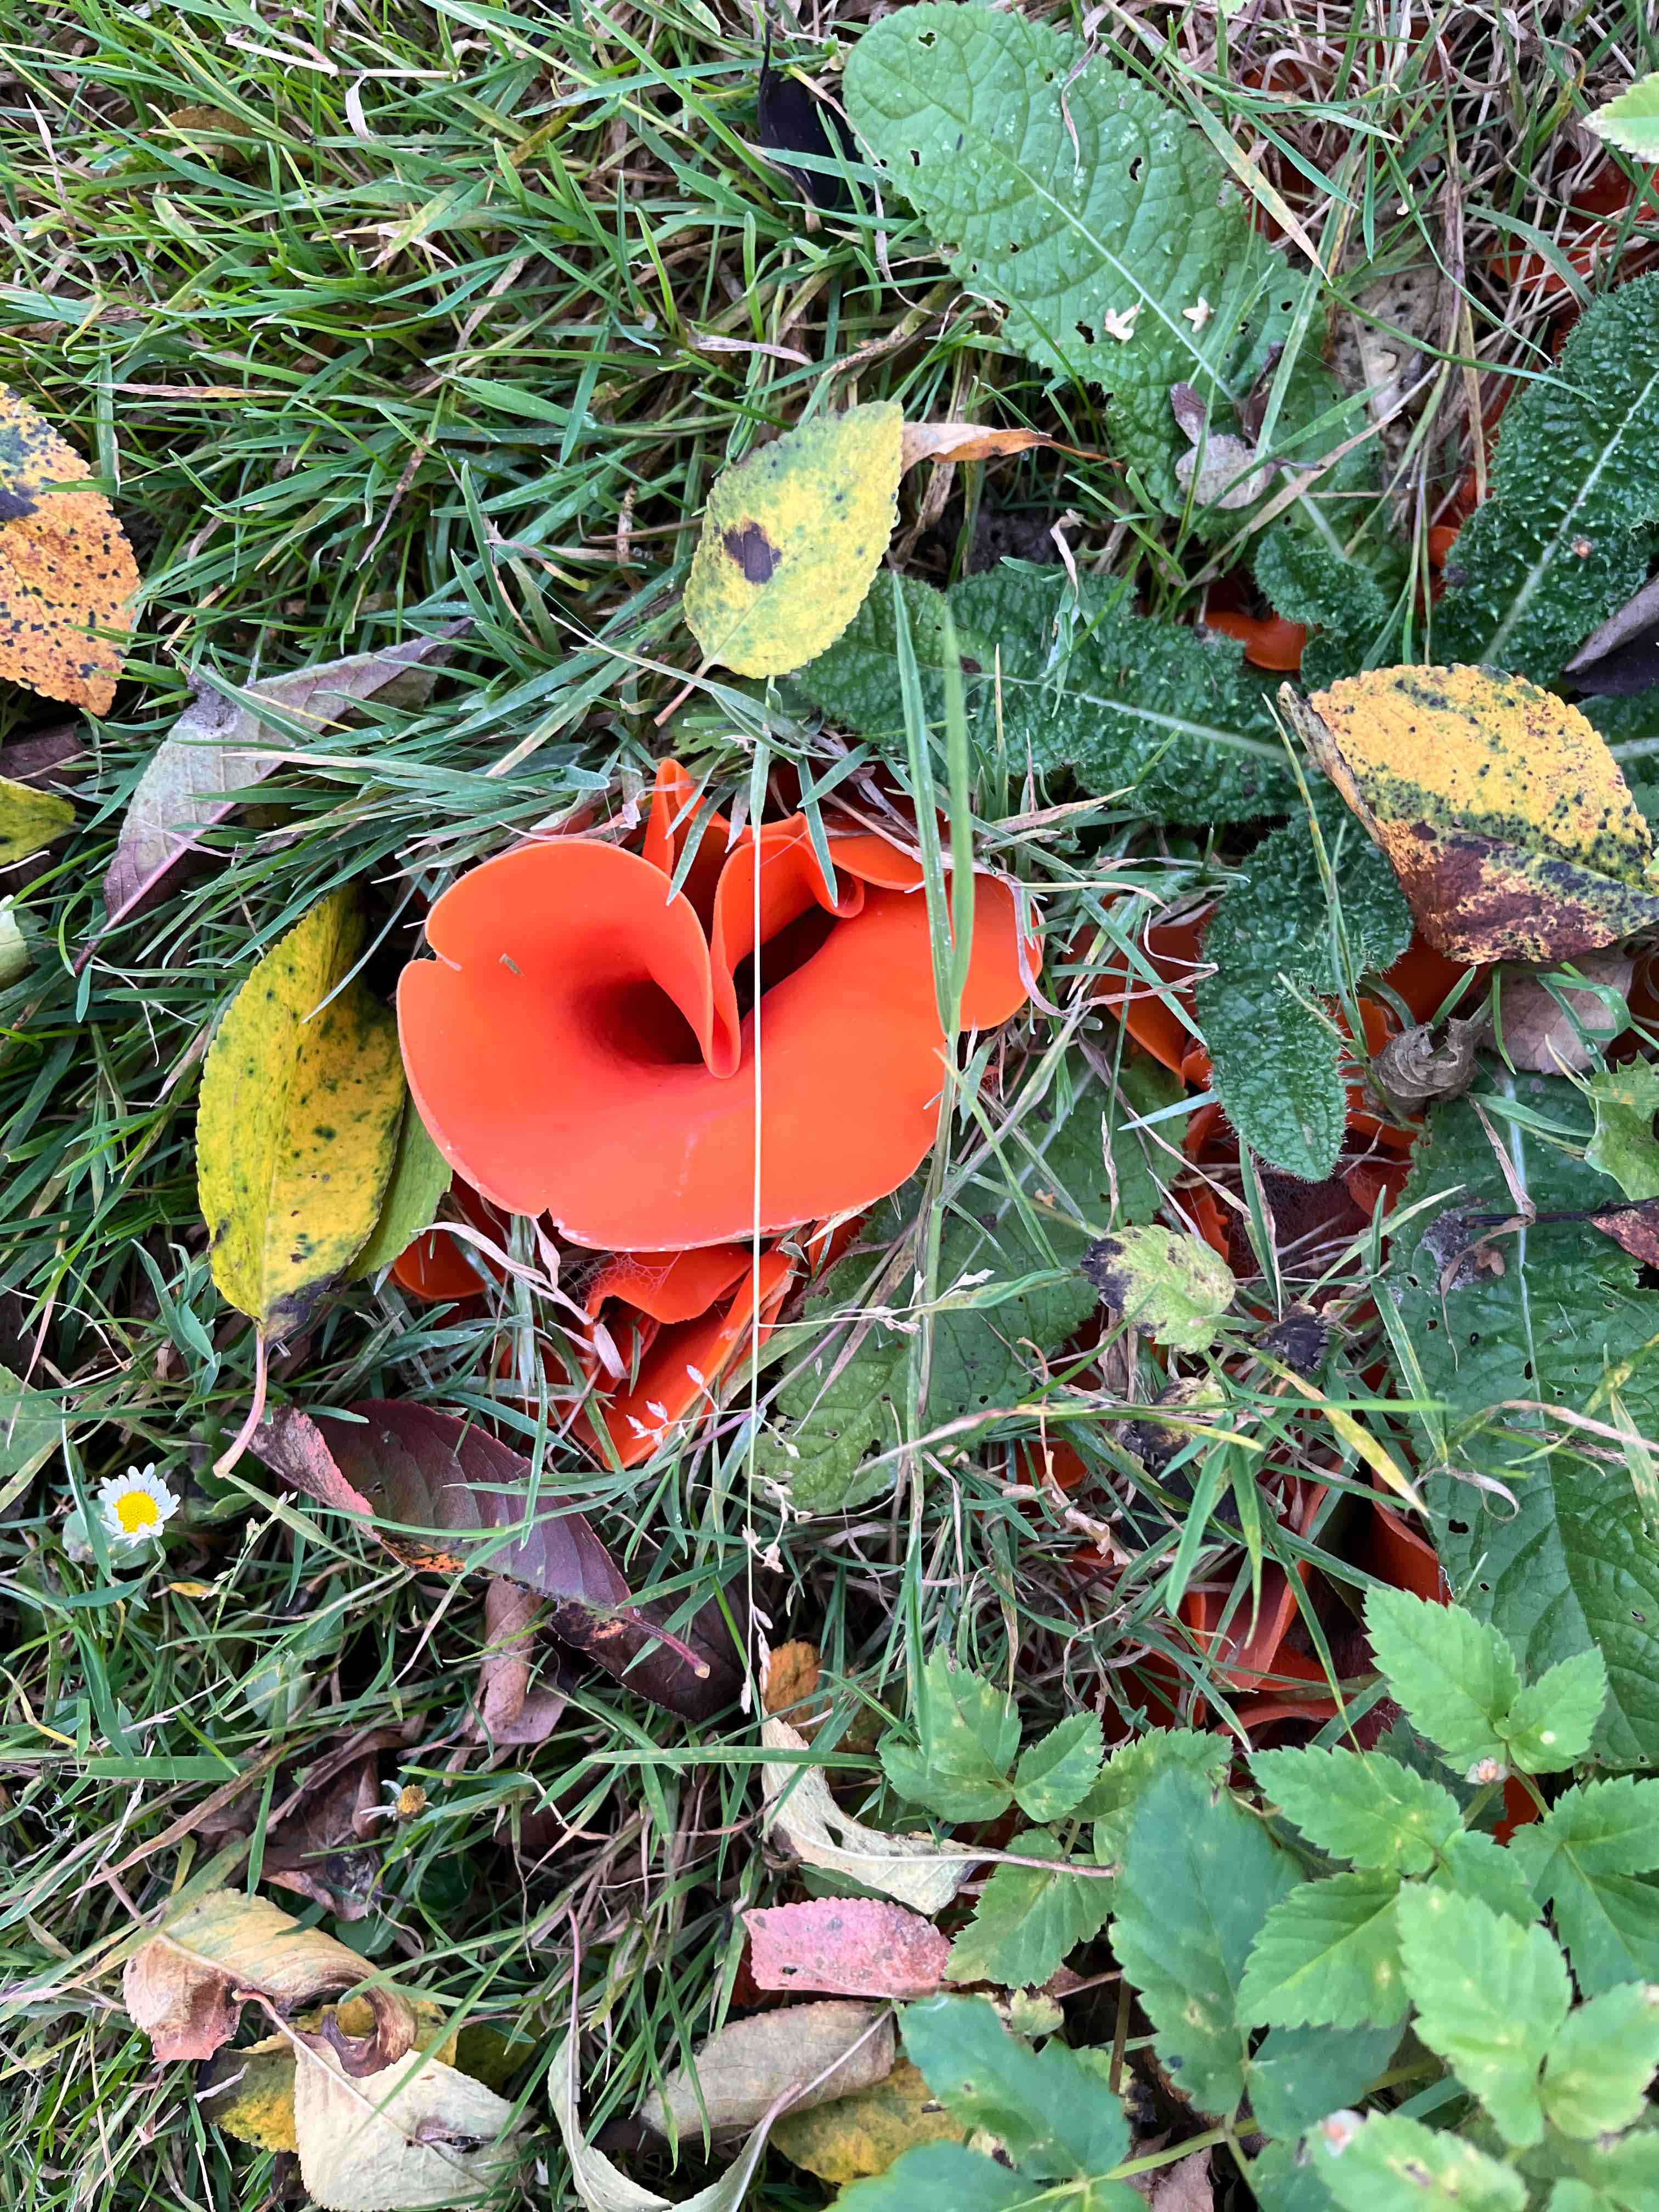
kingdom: Fungi
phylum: Ascomycota
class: Pezizomycetes
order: Pezizales
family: Pyronemataceae
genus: Aleuria
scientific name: Aleuria aurantia
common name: almindelig orangebæger
